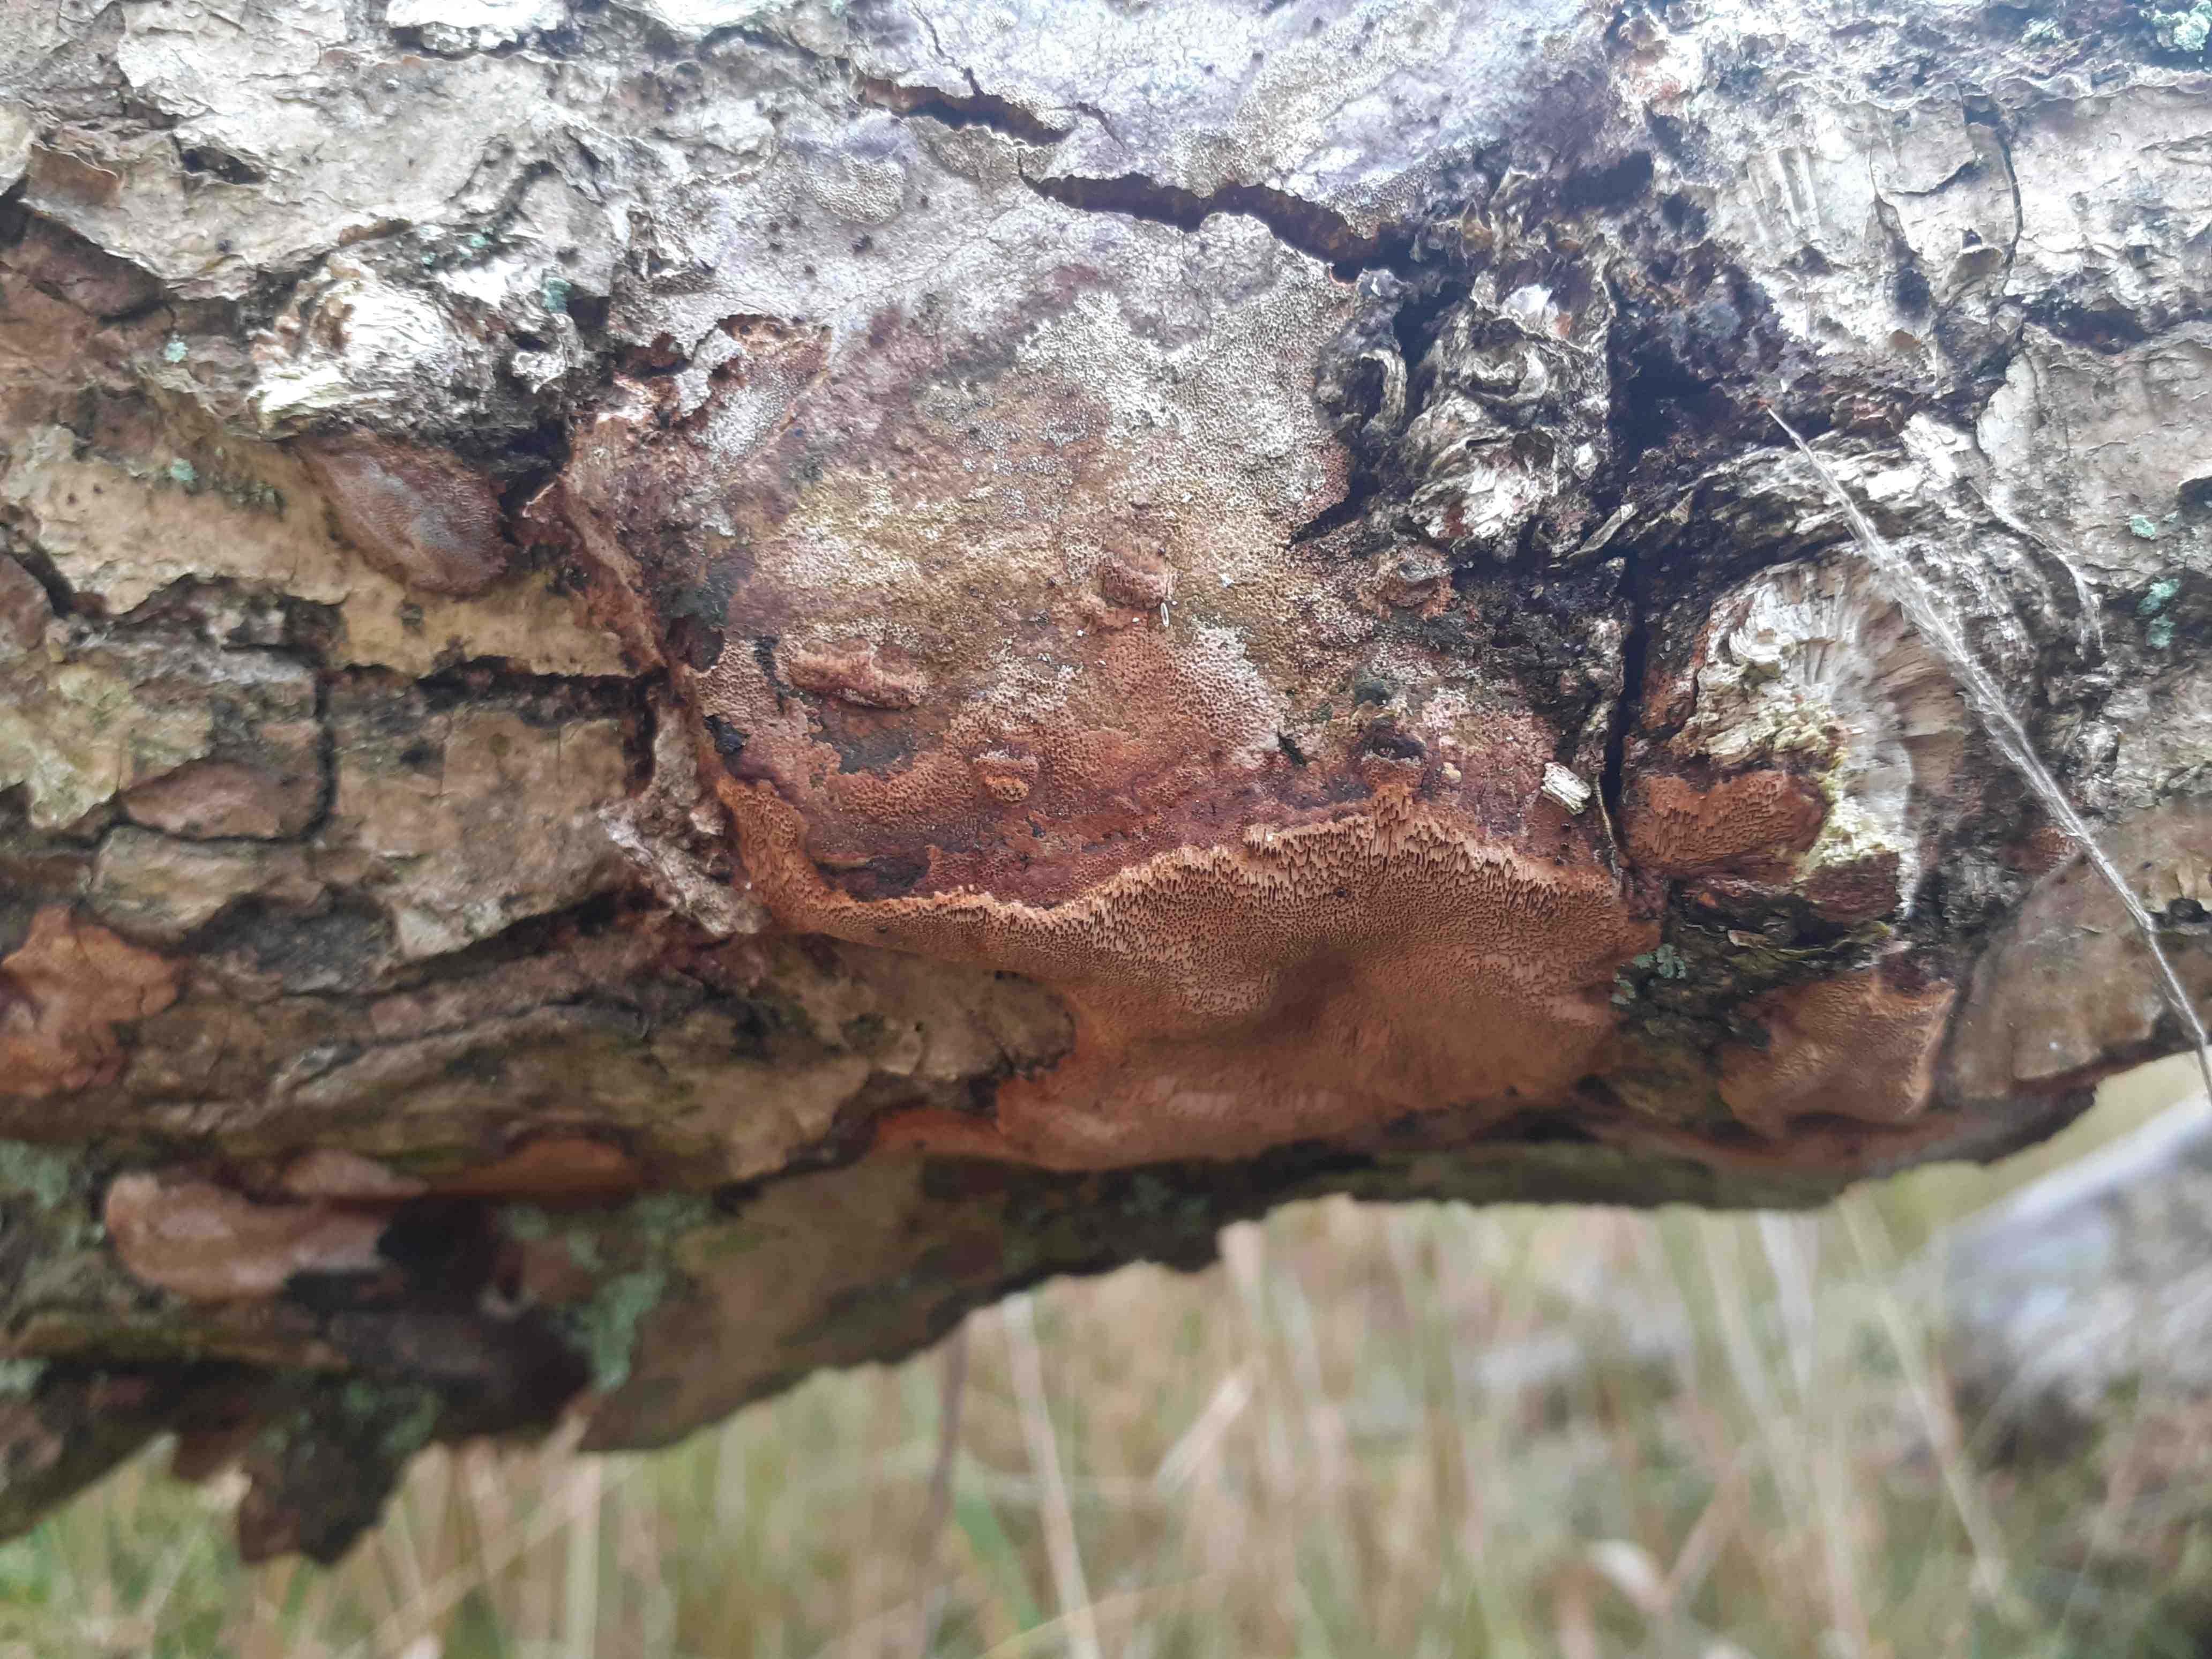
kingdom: Fungi
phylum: Basidiomycota
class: Agaricomycetes
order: Hymenochaetales
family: Hymenochaetaceae
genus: Fuscoporia
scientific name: Fuscoporia ferrea
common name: skorpe-ildporesvamp
